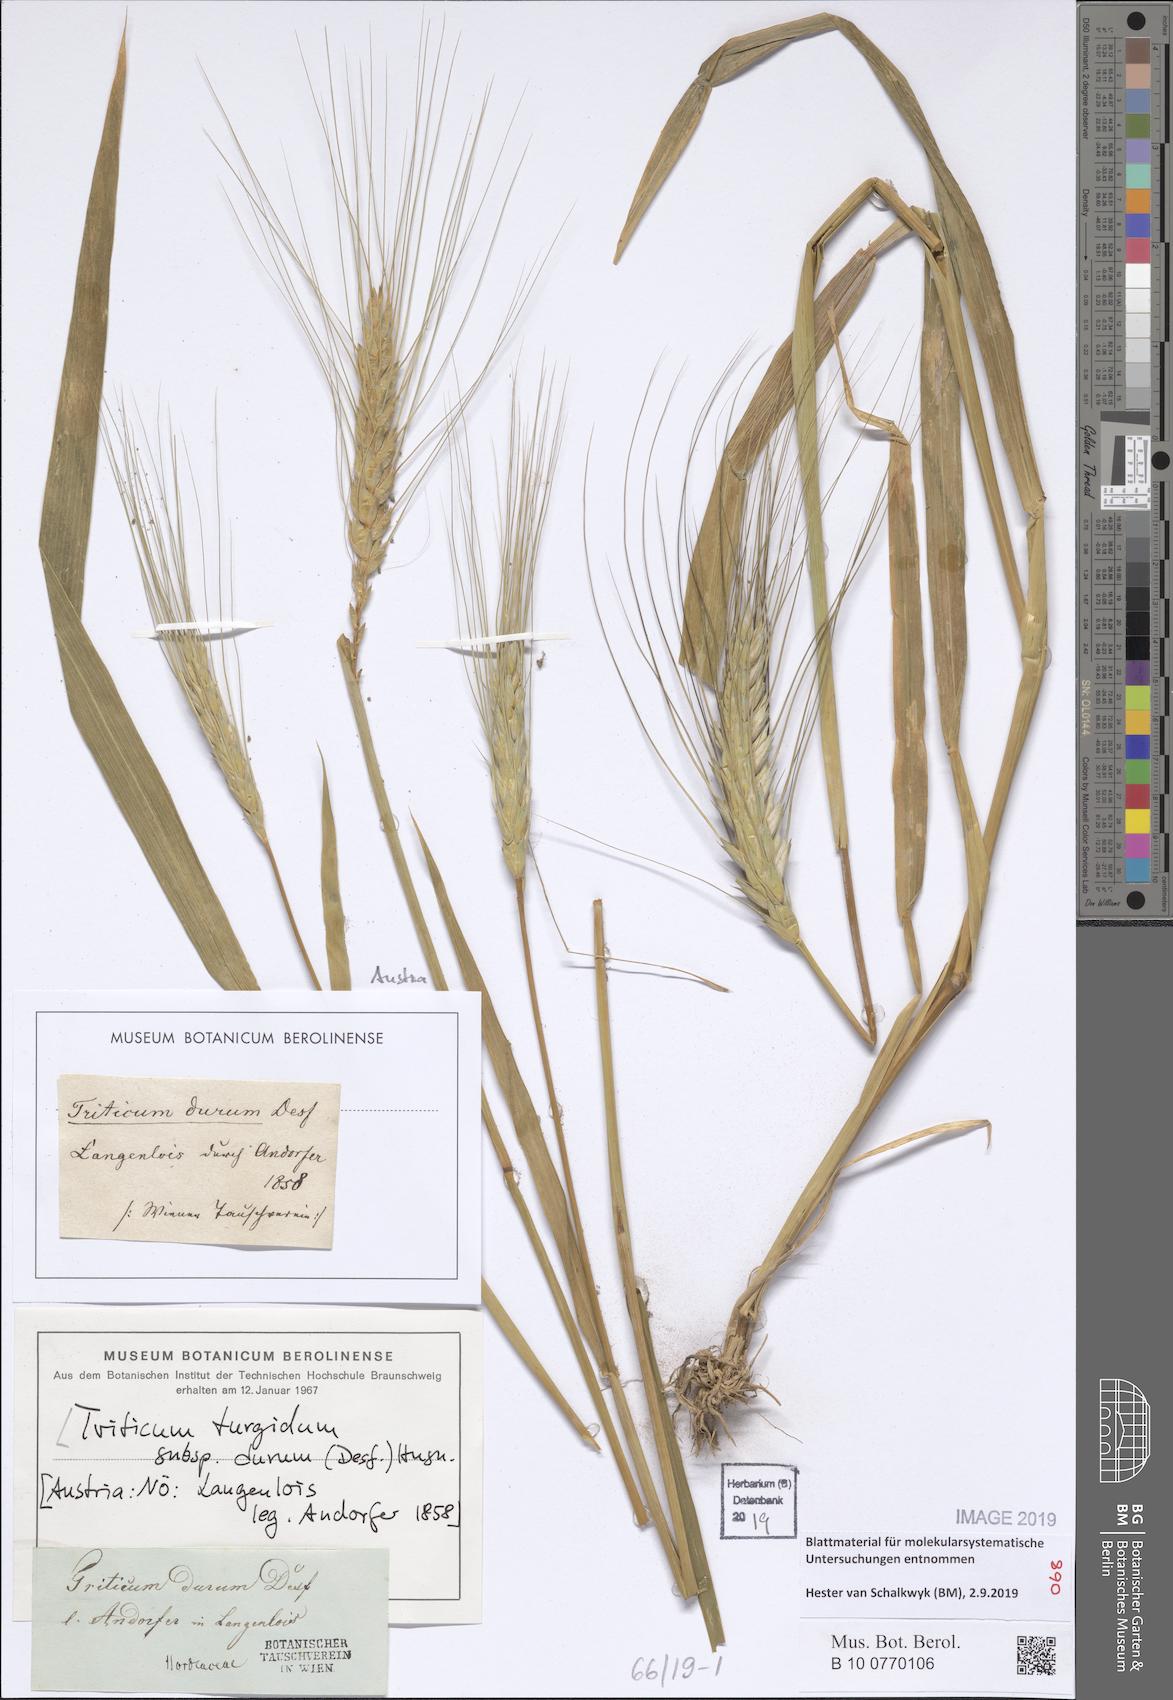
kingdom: Plantae
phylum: Tracheophyta
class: Liliopsida
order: Poales
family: Poaceae
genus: Triticum
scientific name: Triticum turgidum
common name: Rivet wheat
